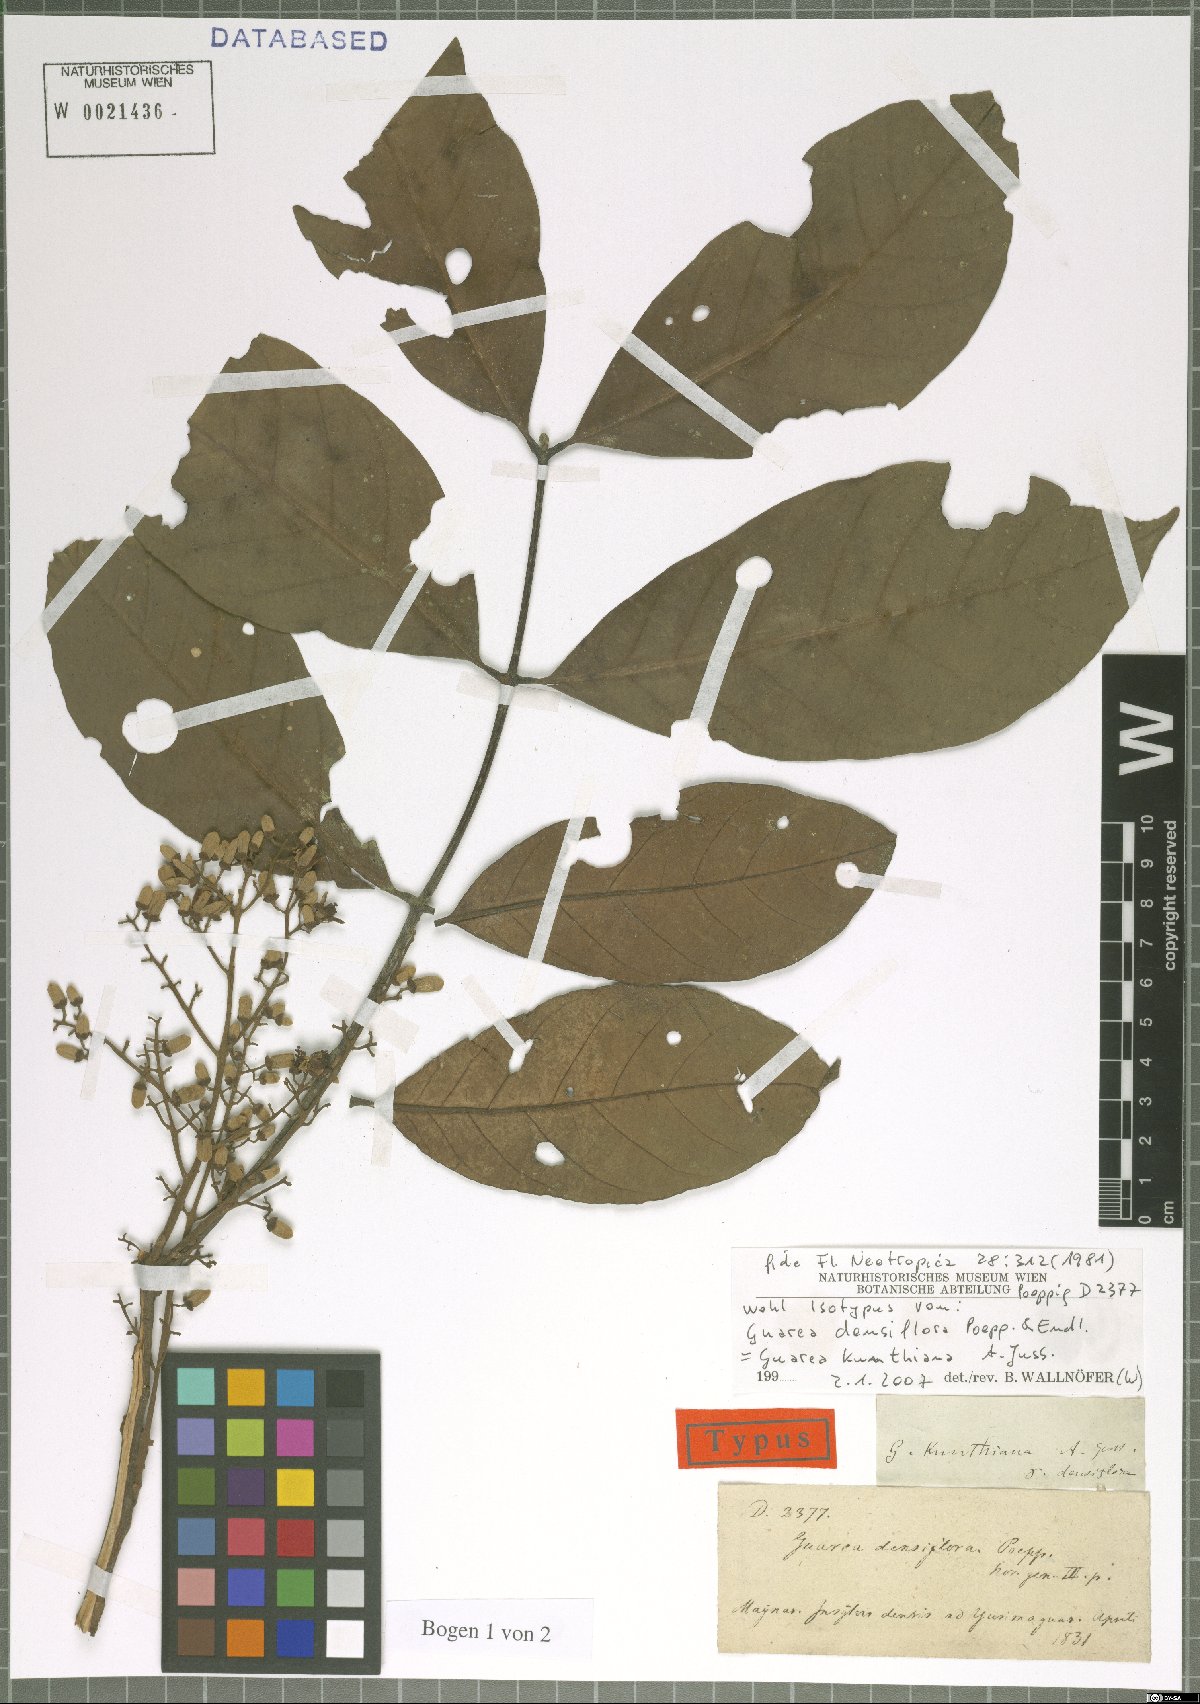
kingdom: Plantae
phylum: Tracheophyta
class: Magnoliopsida
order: Sapindales
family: Meliaceae
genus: Guarea
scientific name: Guarea kunthiana
